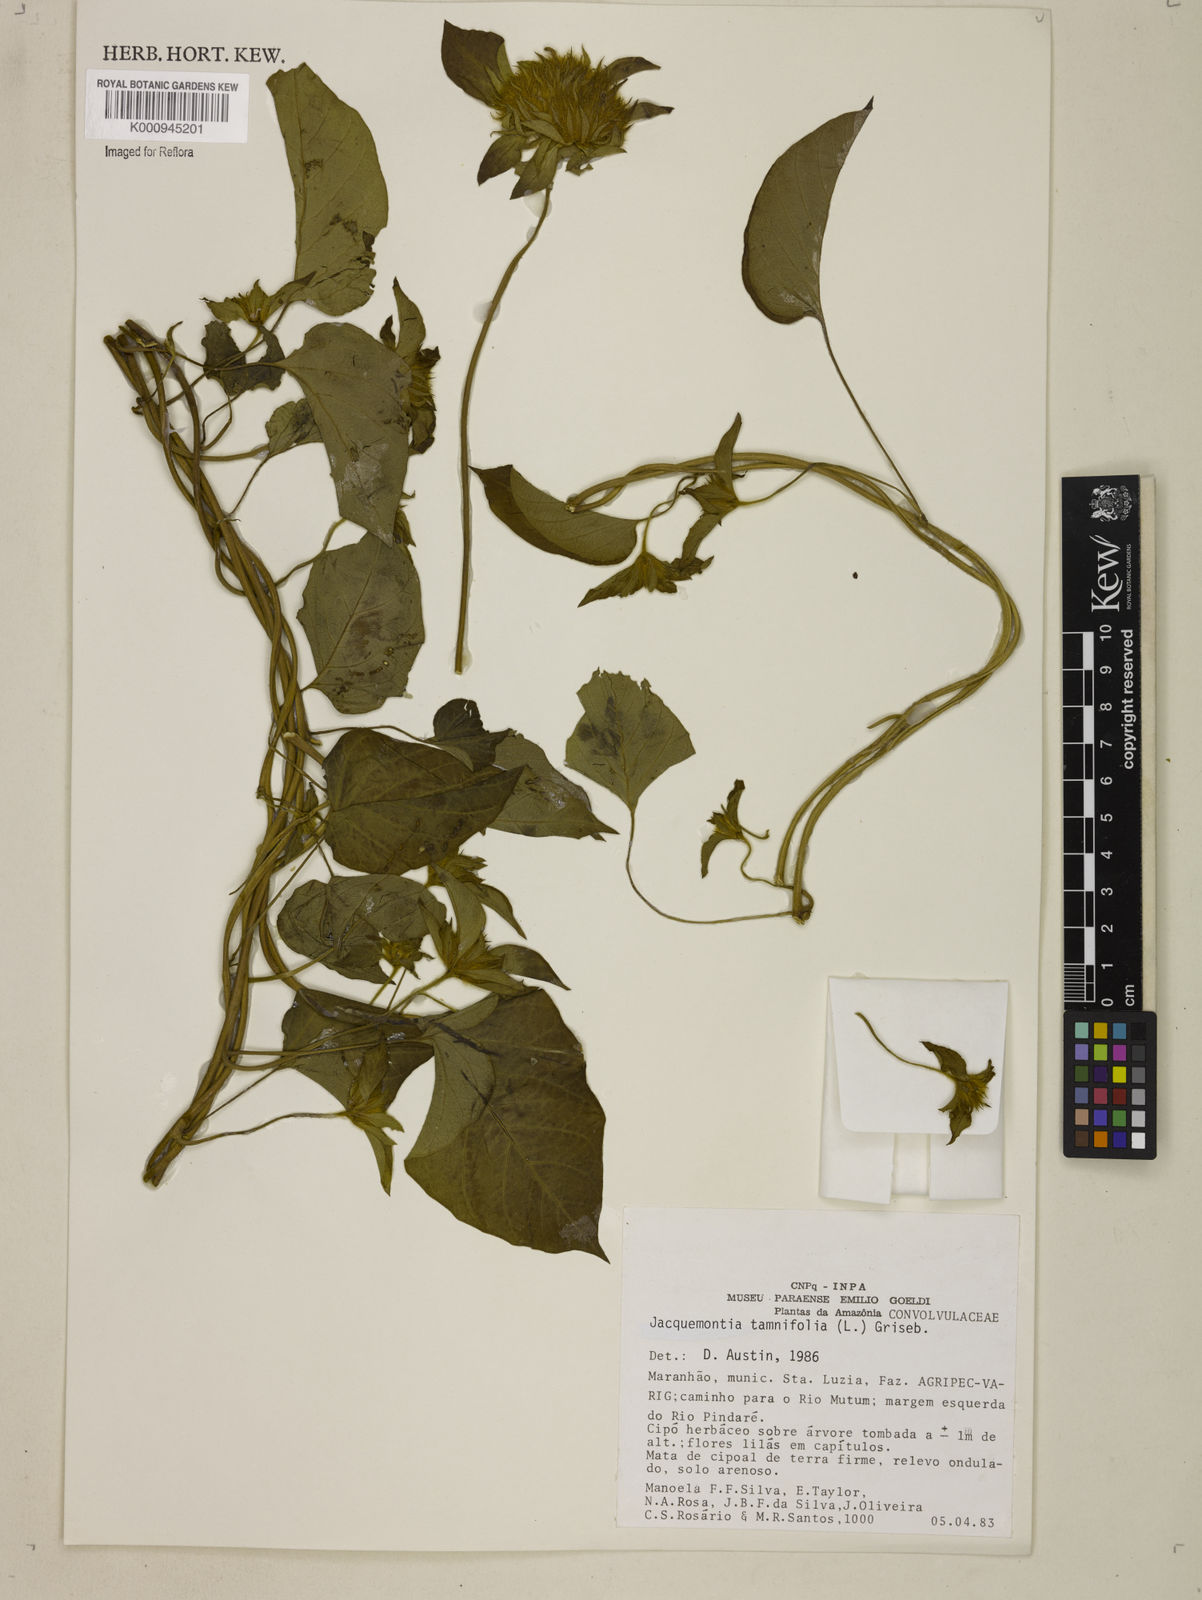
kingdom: Plantae
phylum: Tracheophyta
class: Magnoliopsida
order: Solanales
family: Convolvulaceae
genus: Jacquemontia
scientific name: Jacquemontia tamnifolia
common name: Hairy clustervine
